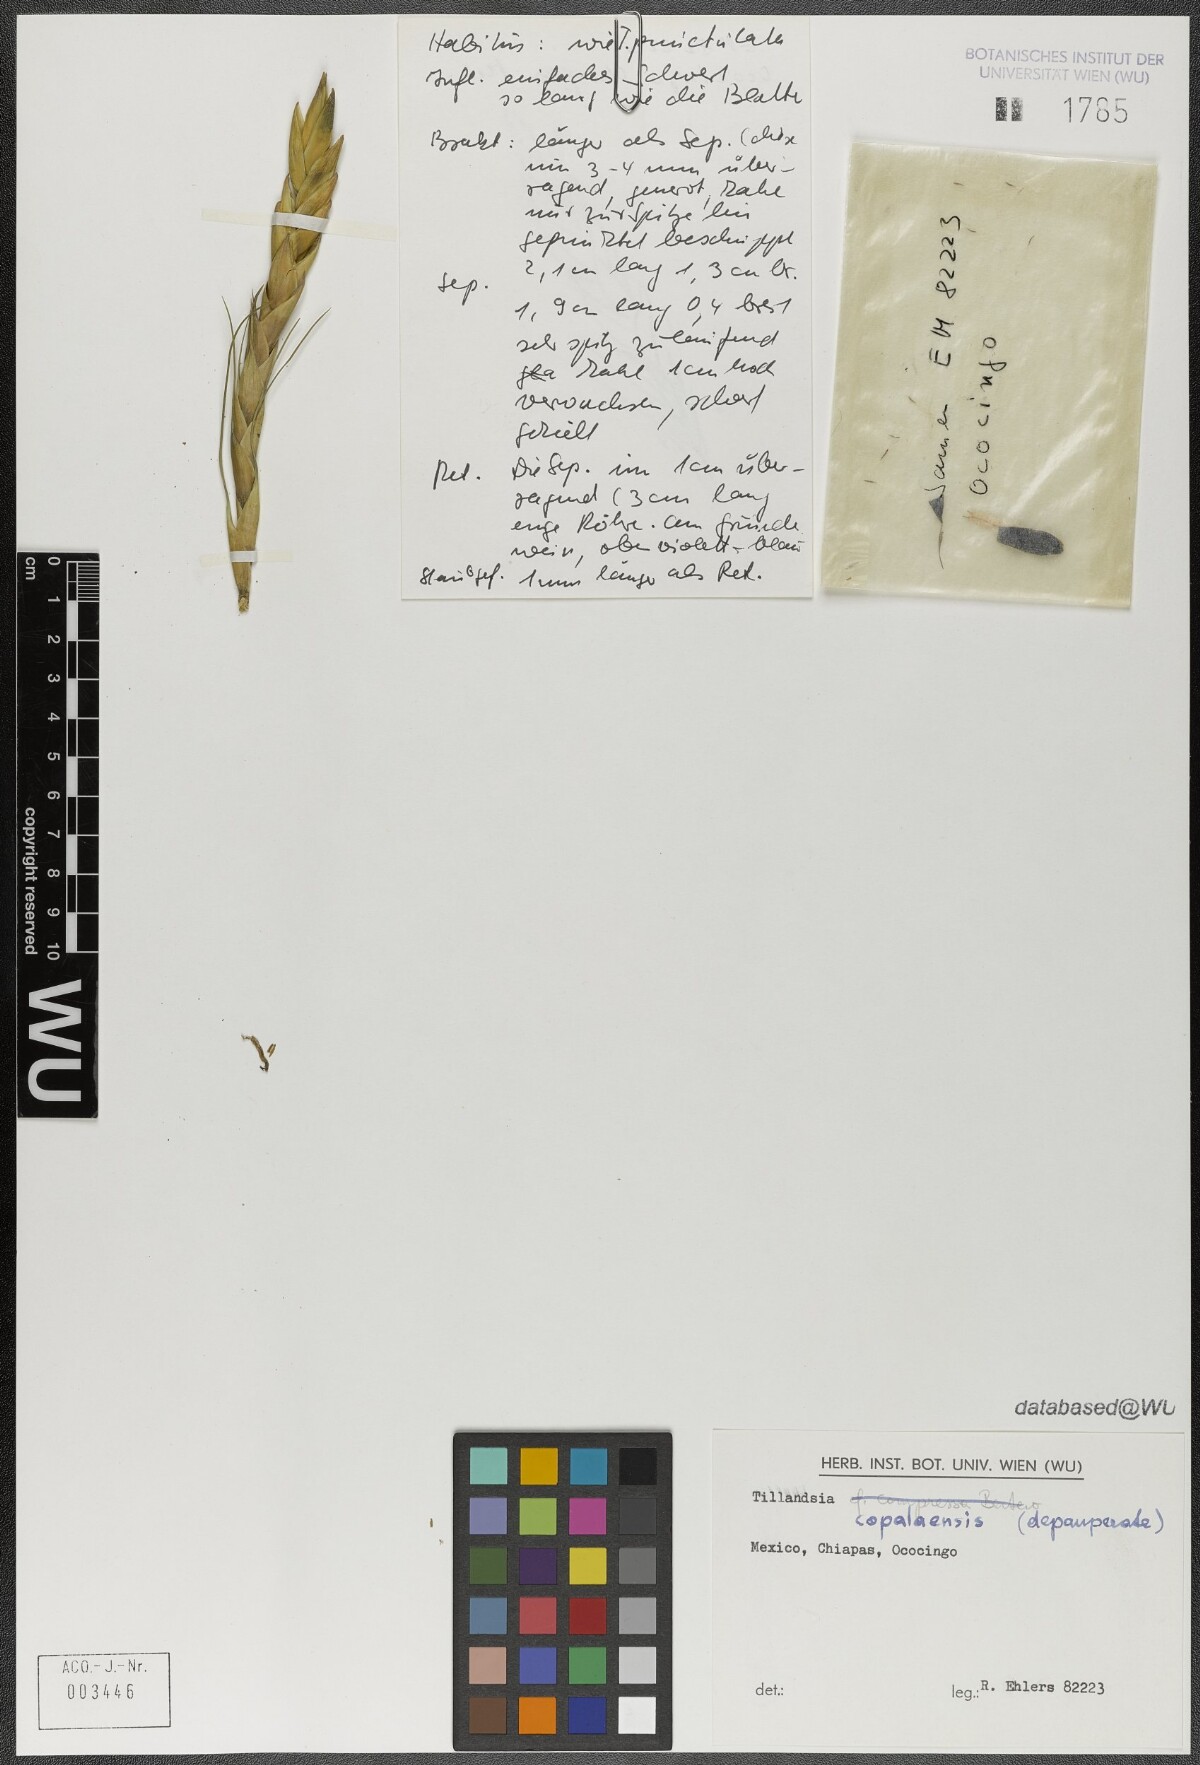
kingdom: Plantae
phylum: Tracheophyta
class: Liliopsida
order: Poales
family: Bromeliaceae
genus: Tillandsia
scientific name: Tillandsia copalaensis
